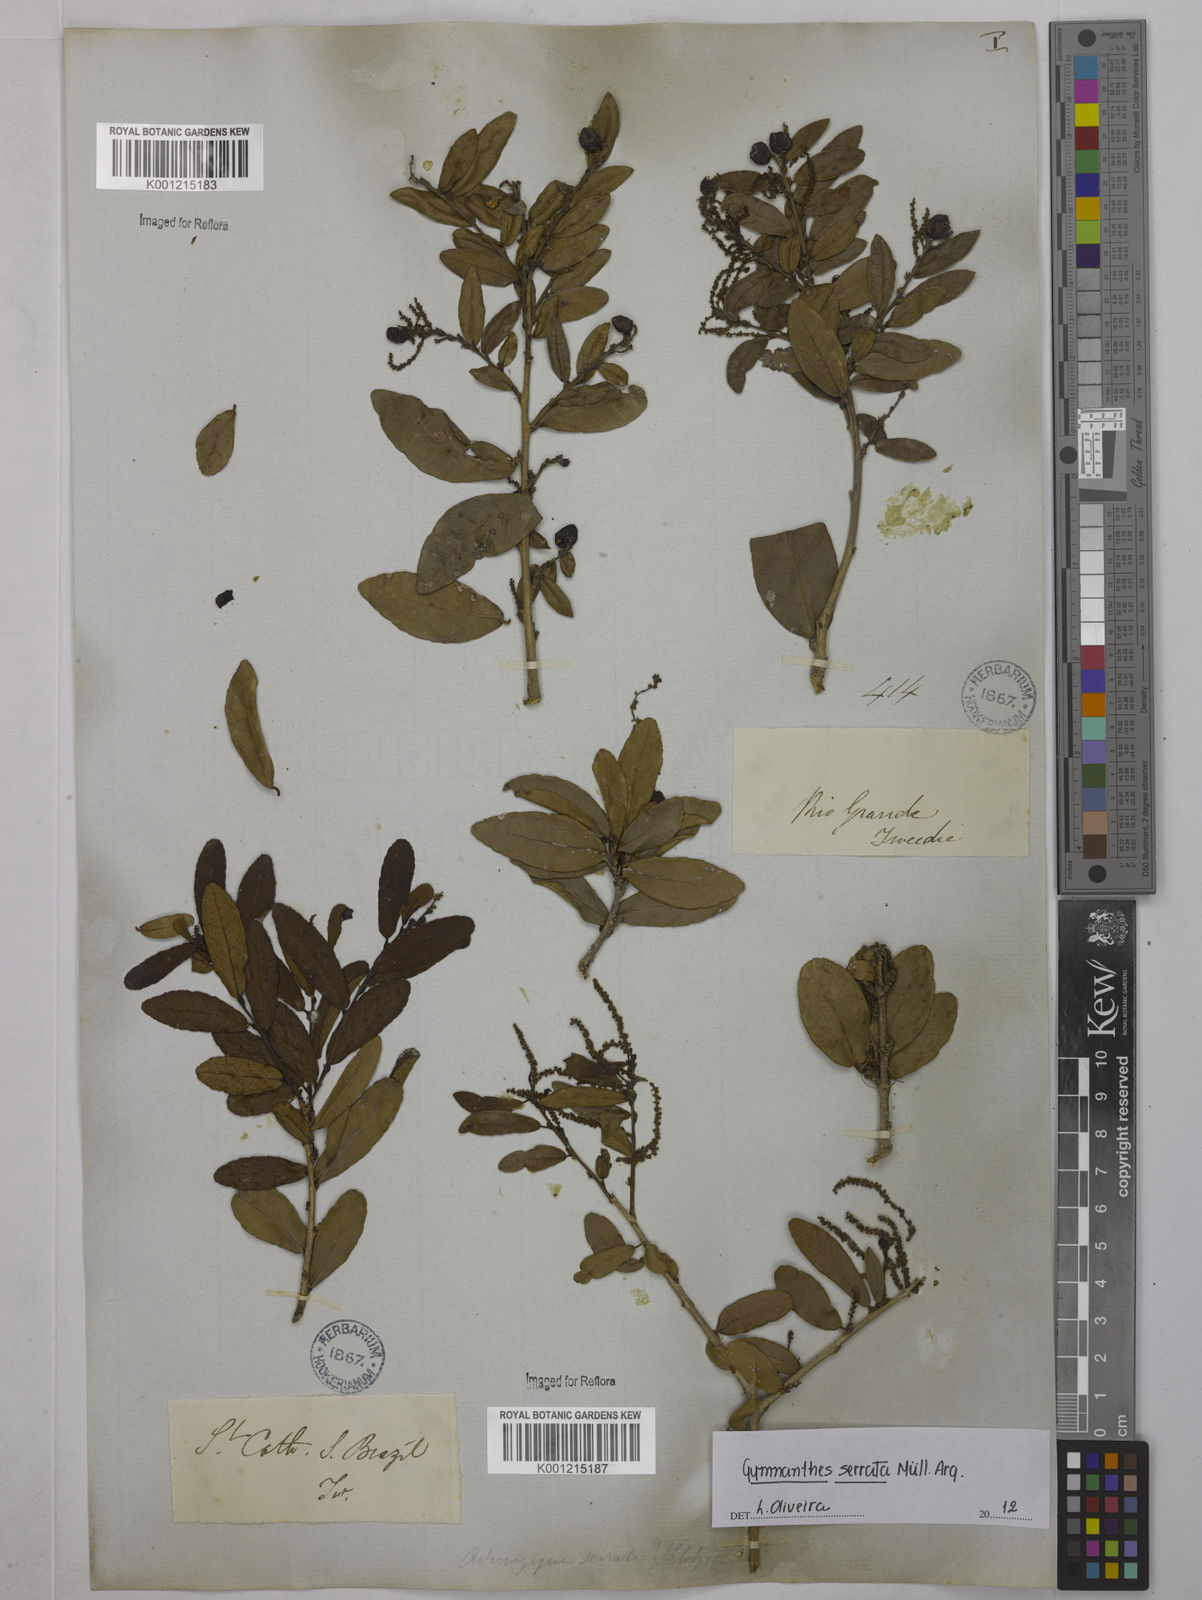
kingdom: Plantae
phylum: Tracheophyta
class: Magnoliopsida
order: Malpighiales
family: Euphorbiaceae
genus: Gymnanthes
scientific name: Gymnanthes
